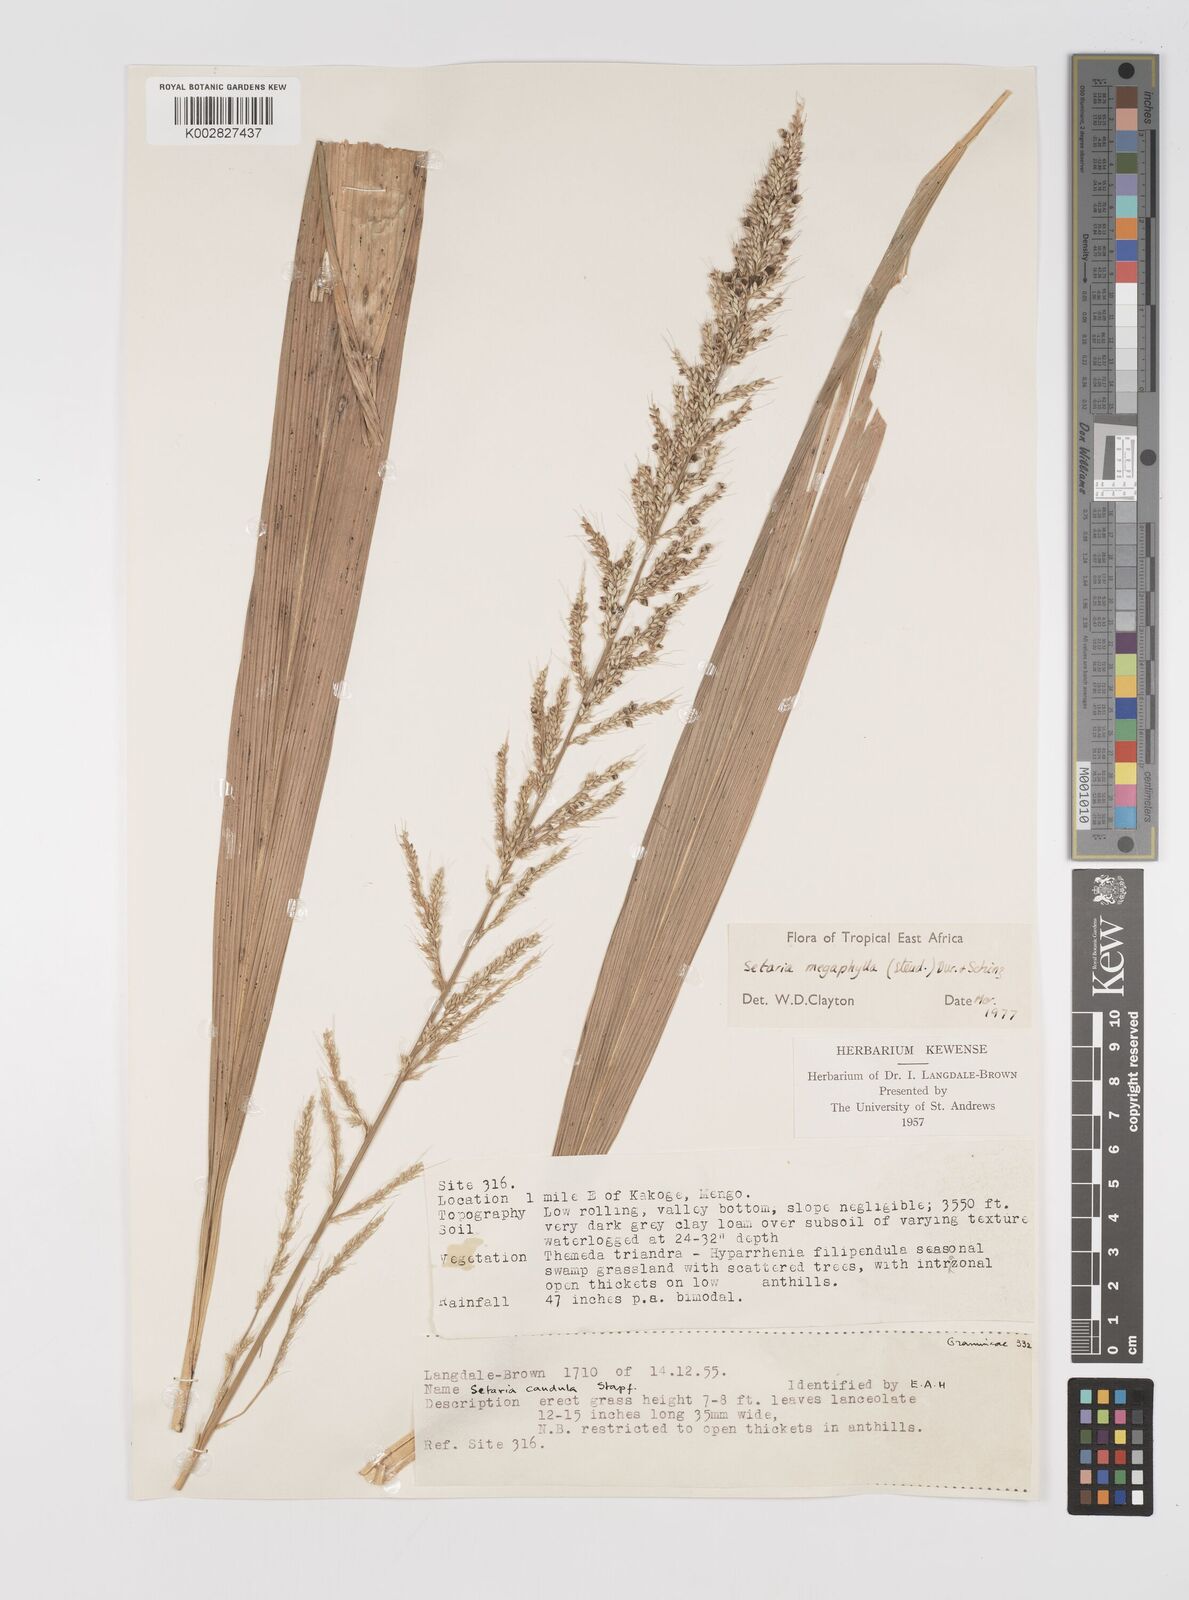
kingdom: Plantae
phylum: Tracheophyta
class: Liliopsida
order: Poales
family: Poaceae
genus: Setaria
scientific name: Setaria megaphylla
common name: Bigleaf bristlegrass
